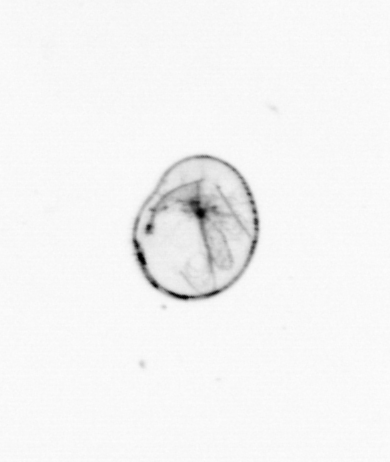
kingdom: Chromista
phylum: Myzozoa
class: Dinophyceae
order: Noctilucales
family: Noctilucaceae
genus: Noctiluca
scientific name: Noctiluca scintillans
